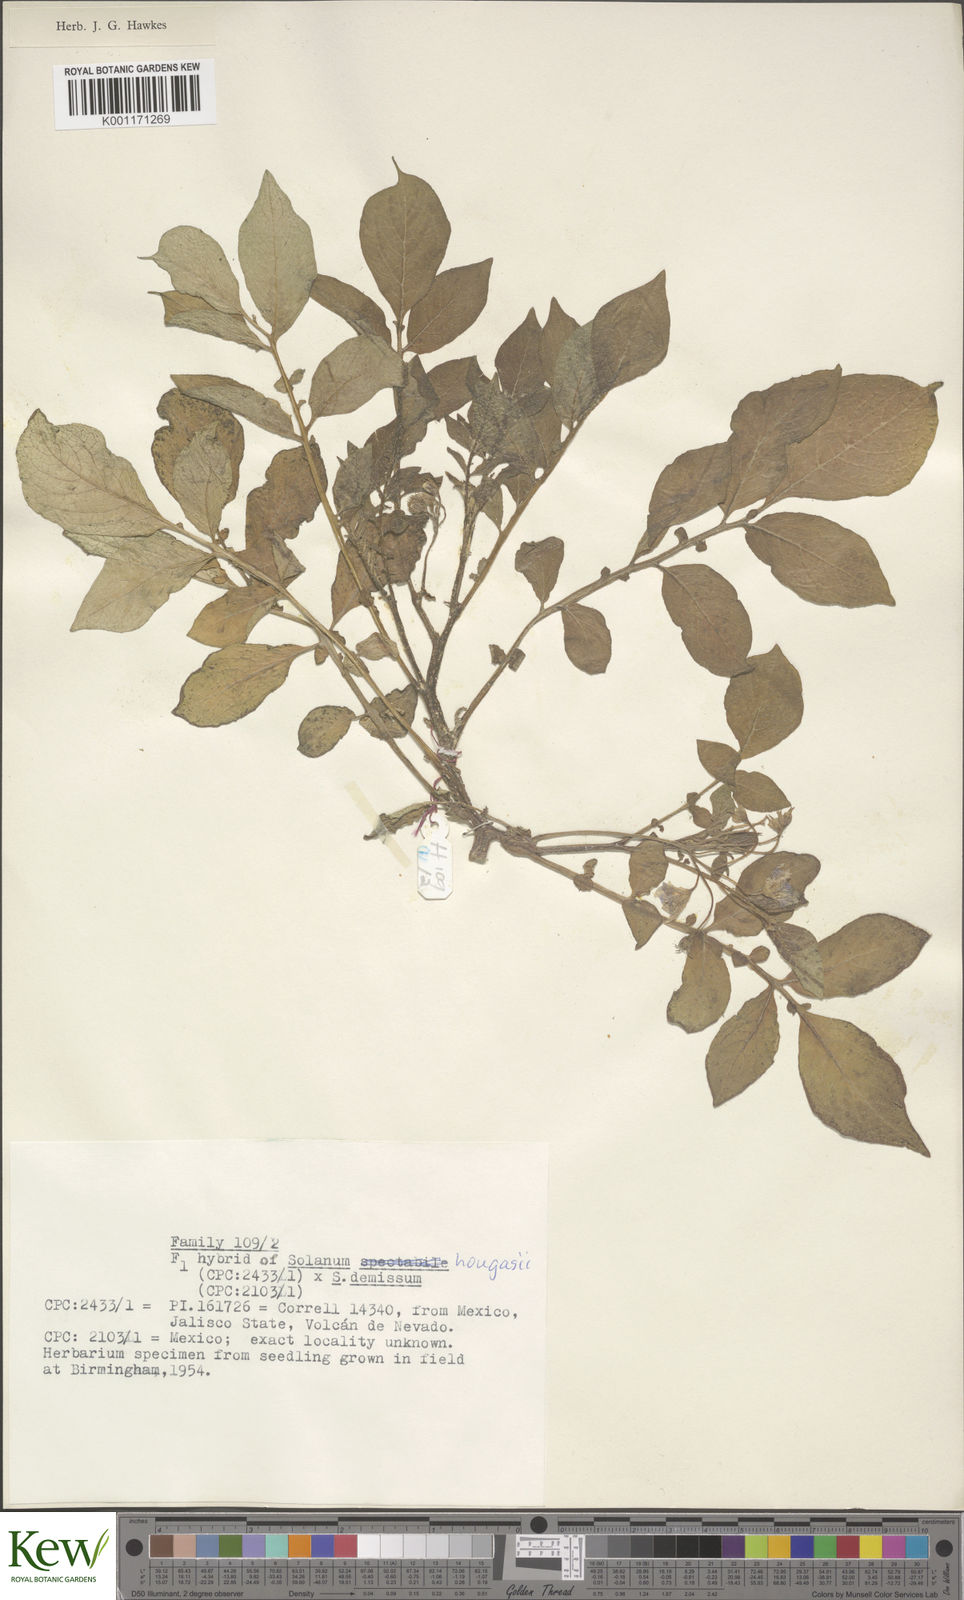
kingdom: Plantae
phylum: Tracheophyta
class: Magnoliopsida
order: Solanales
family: Solanaceae
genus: Solanum
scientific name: Solanum hougasii
